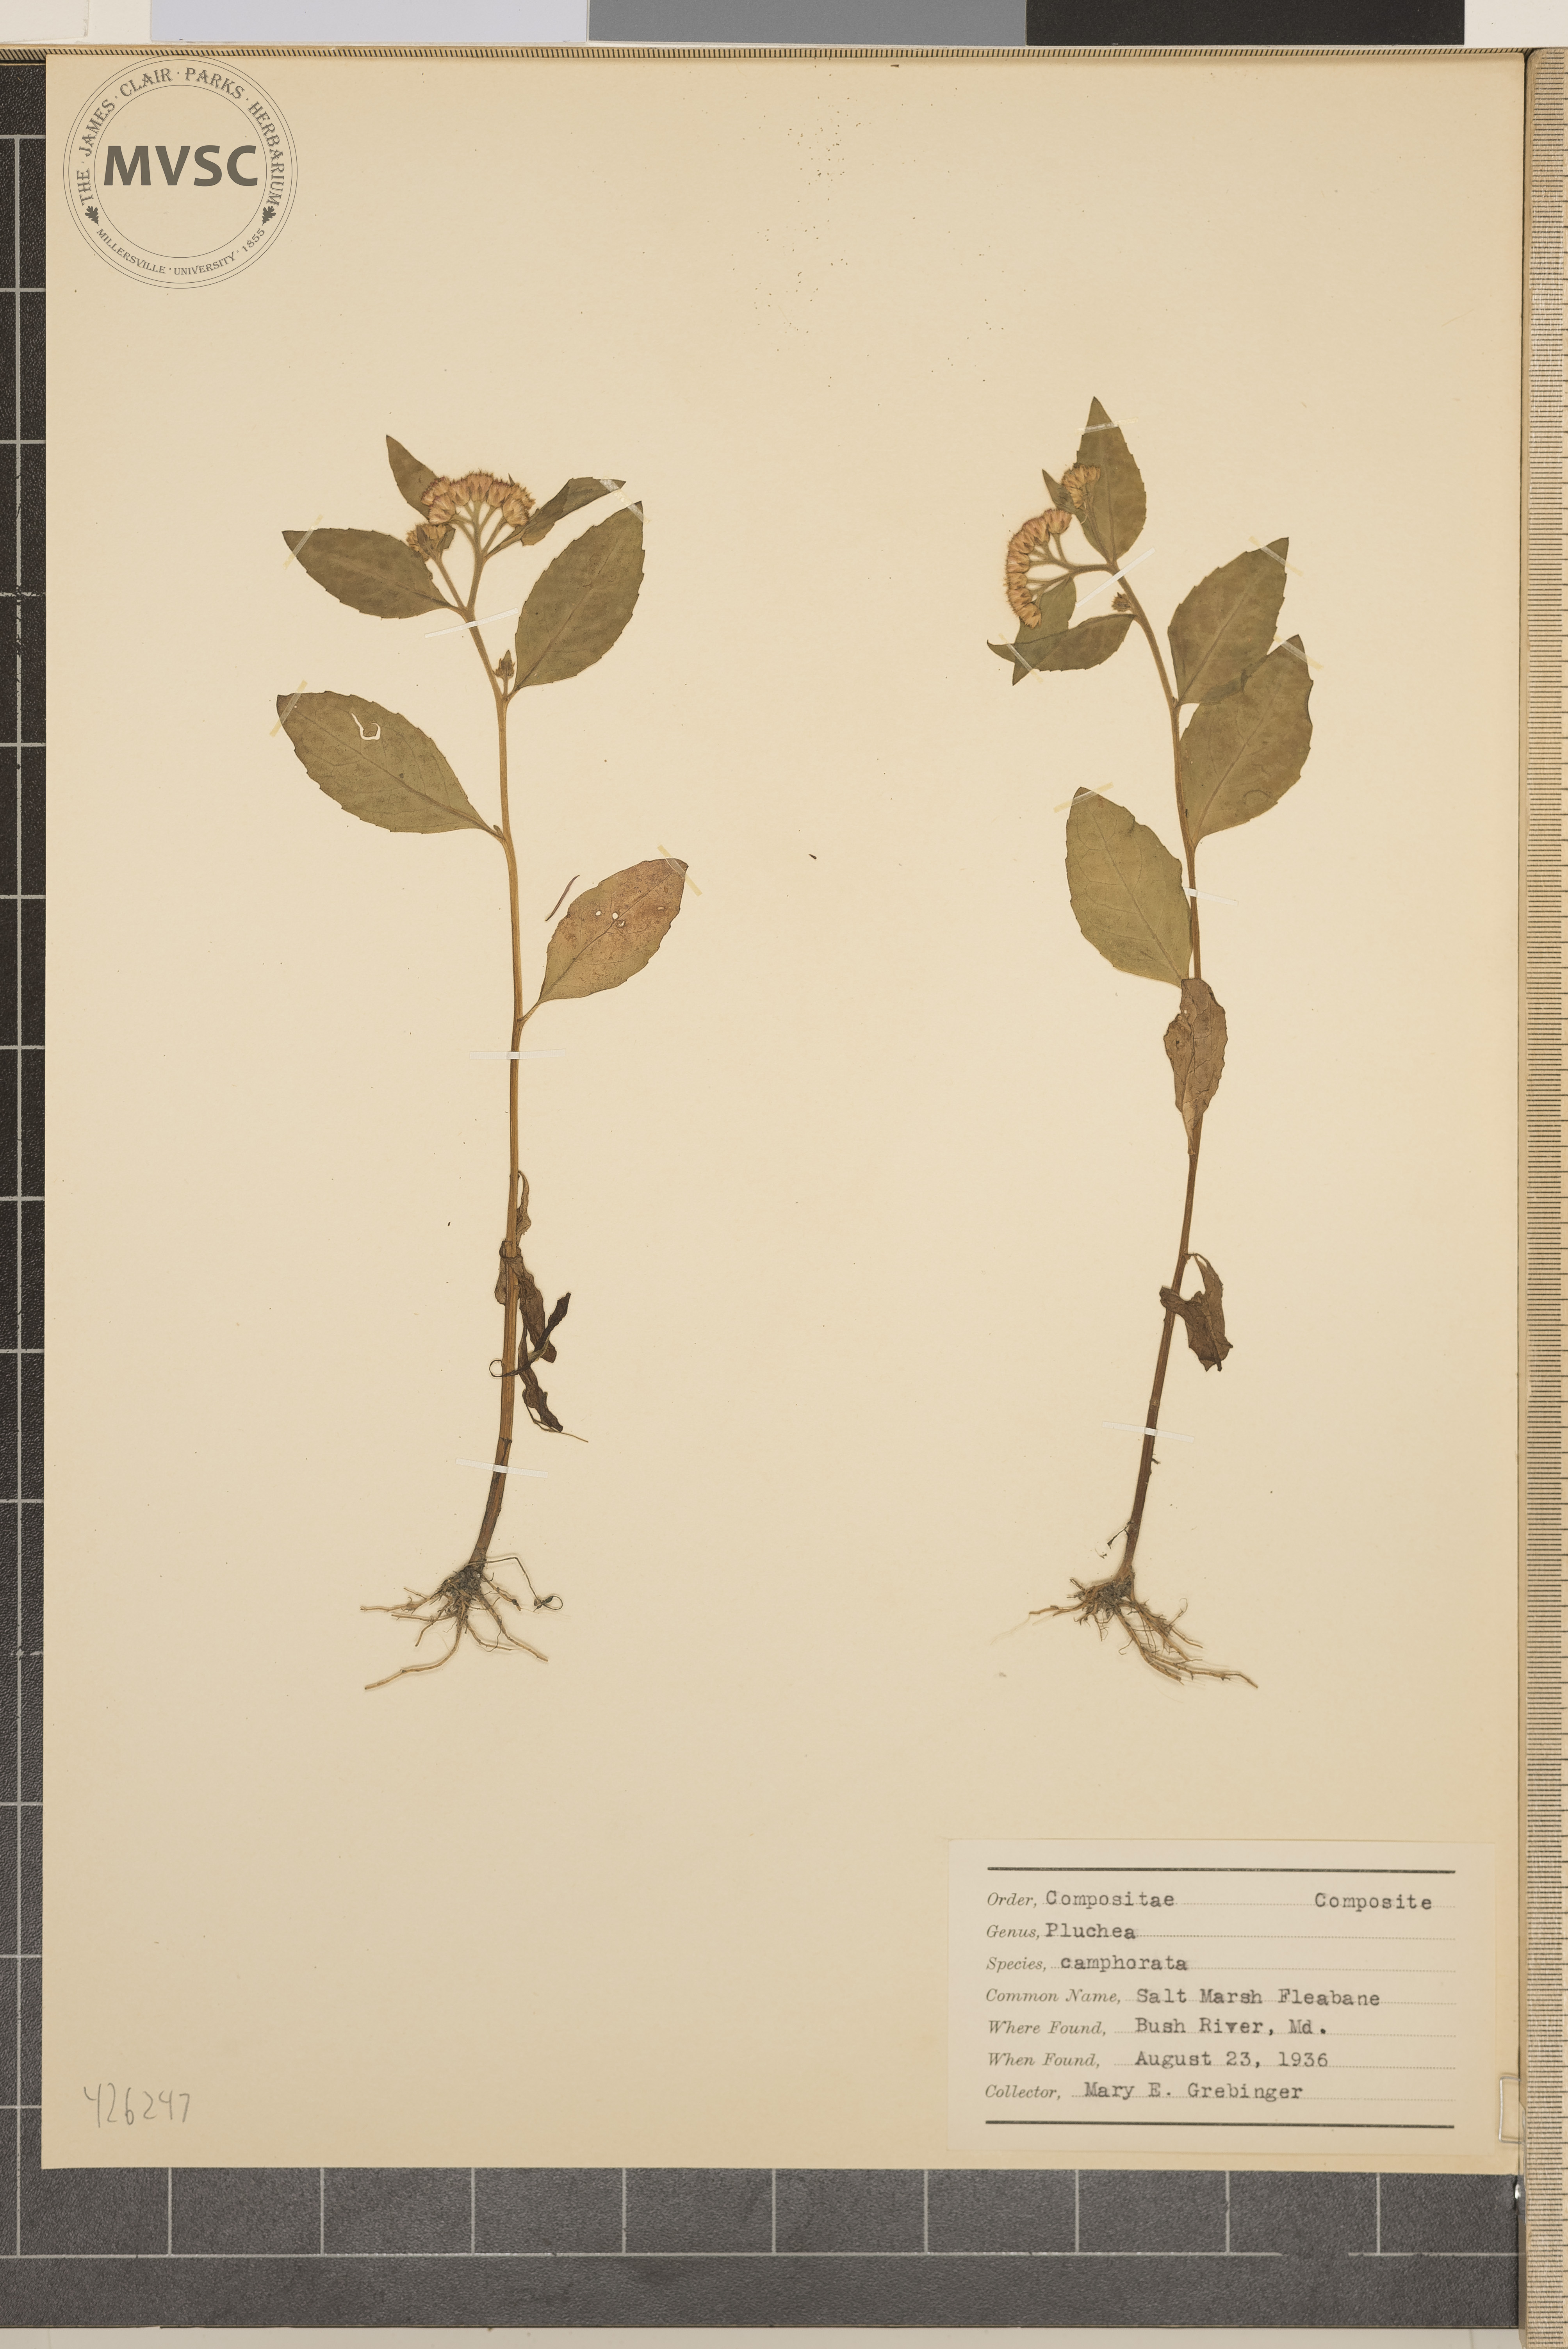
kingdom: Plantae
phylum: Tracheophyta
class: Magnoliopsida
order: Asterales
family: Asteraceae
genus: Pluchea
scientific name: Pluchea camphorata
